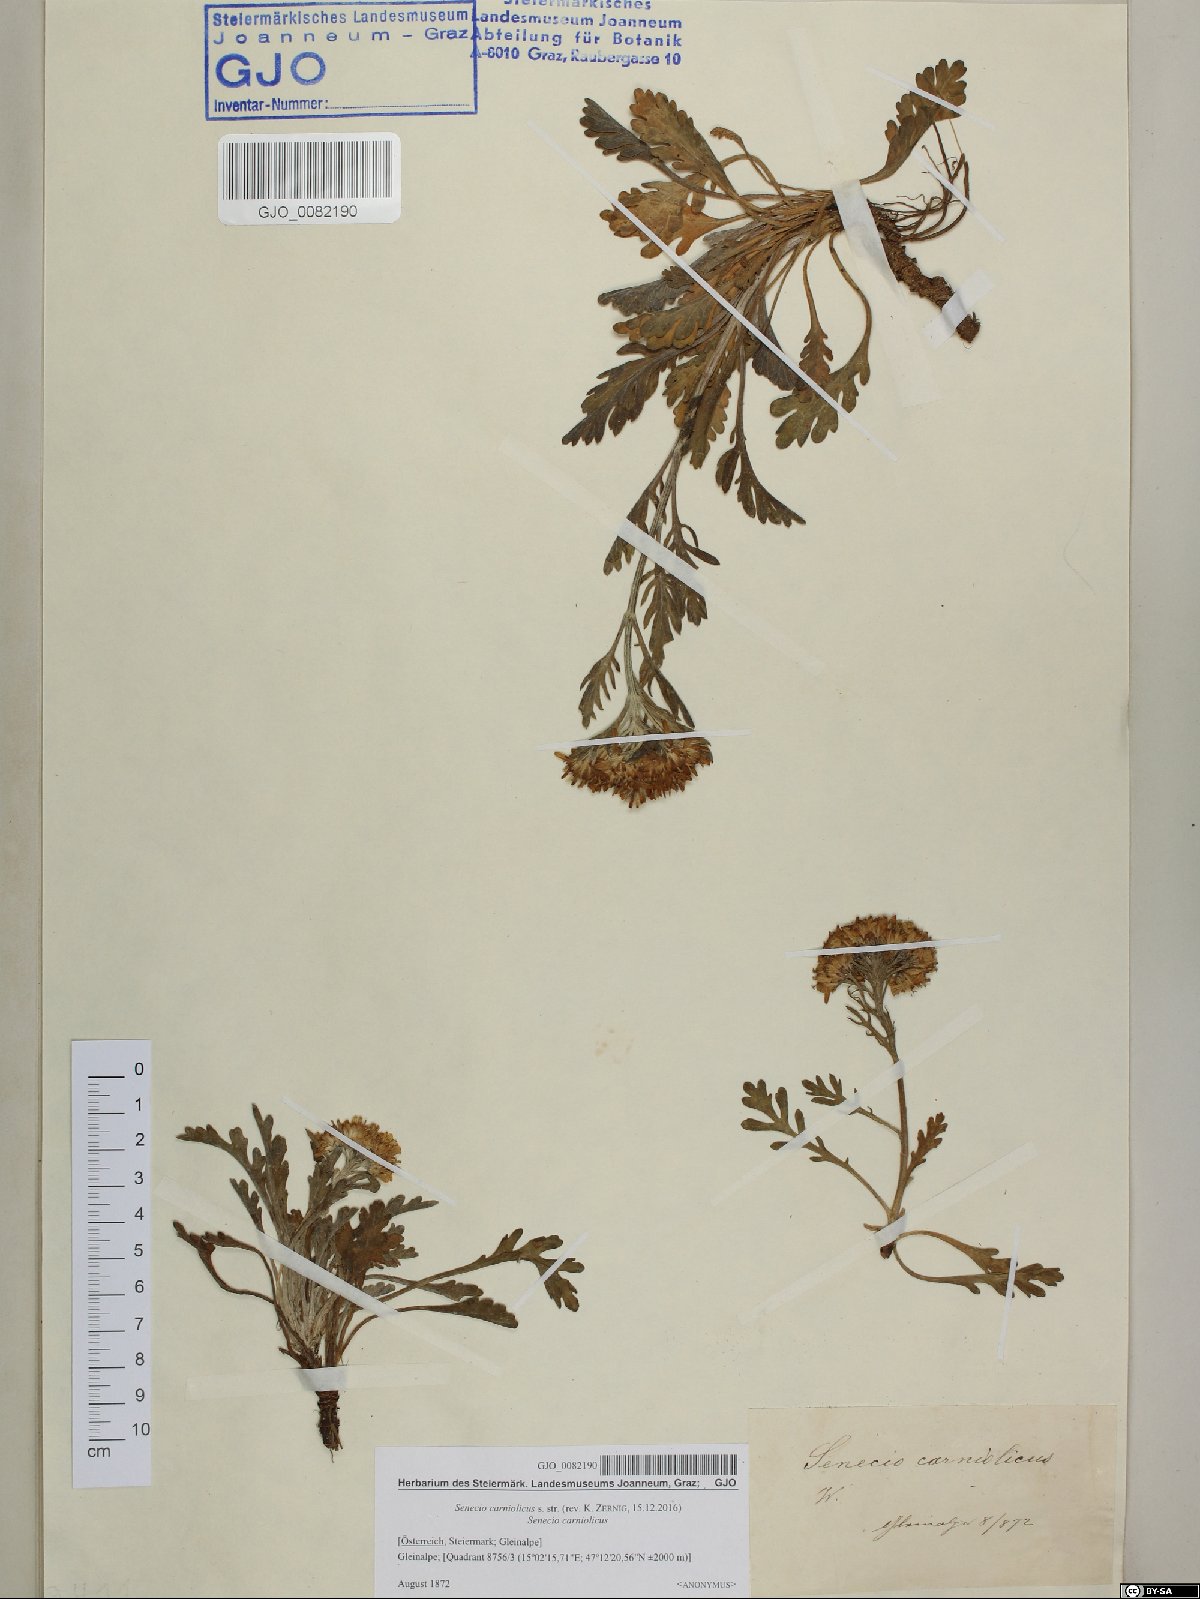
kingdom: Plantae
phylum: Tracheophyta
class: Magnoliopsida
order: Asterales
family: Asteraceae
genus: Jacobaea
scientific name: Jacobaea carniolica
